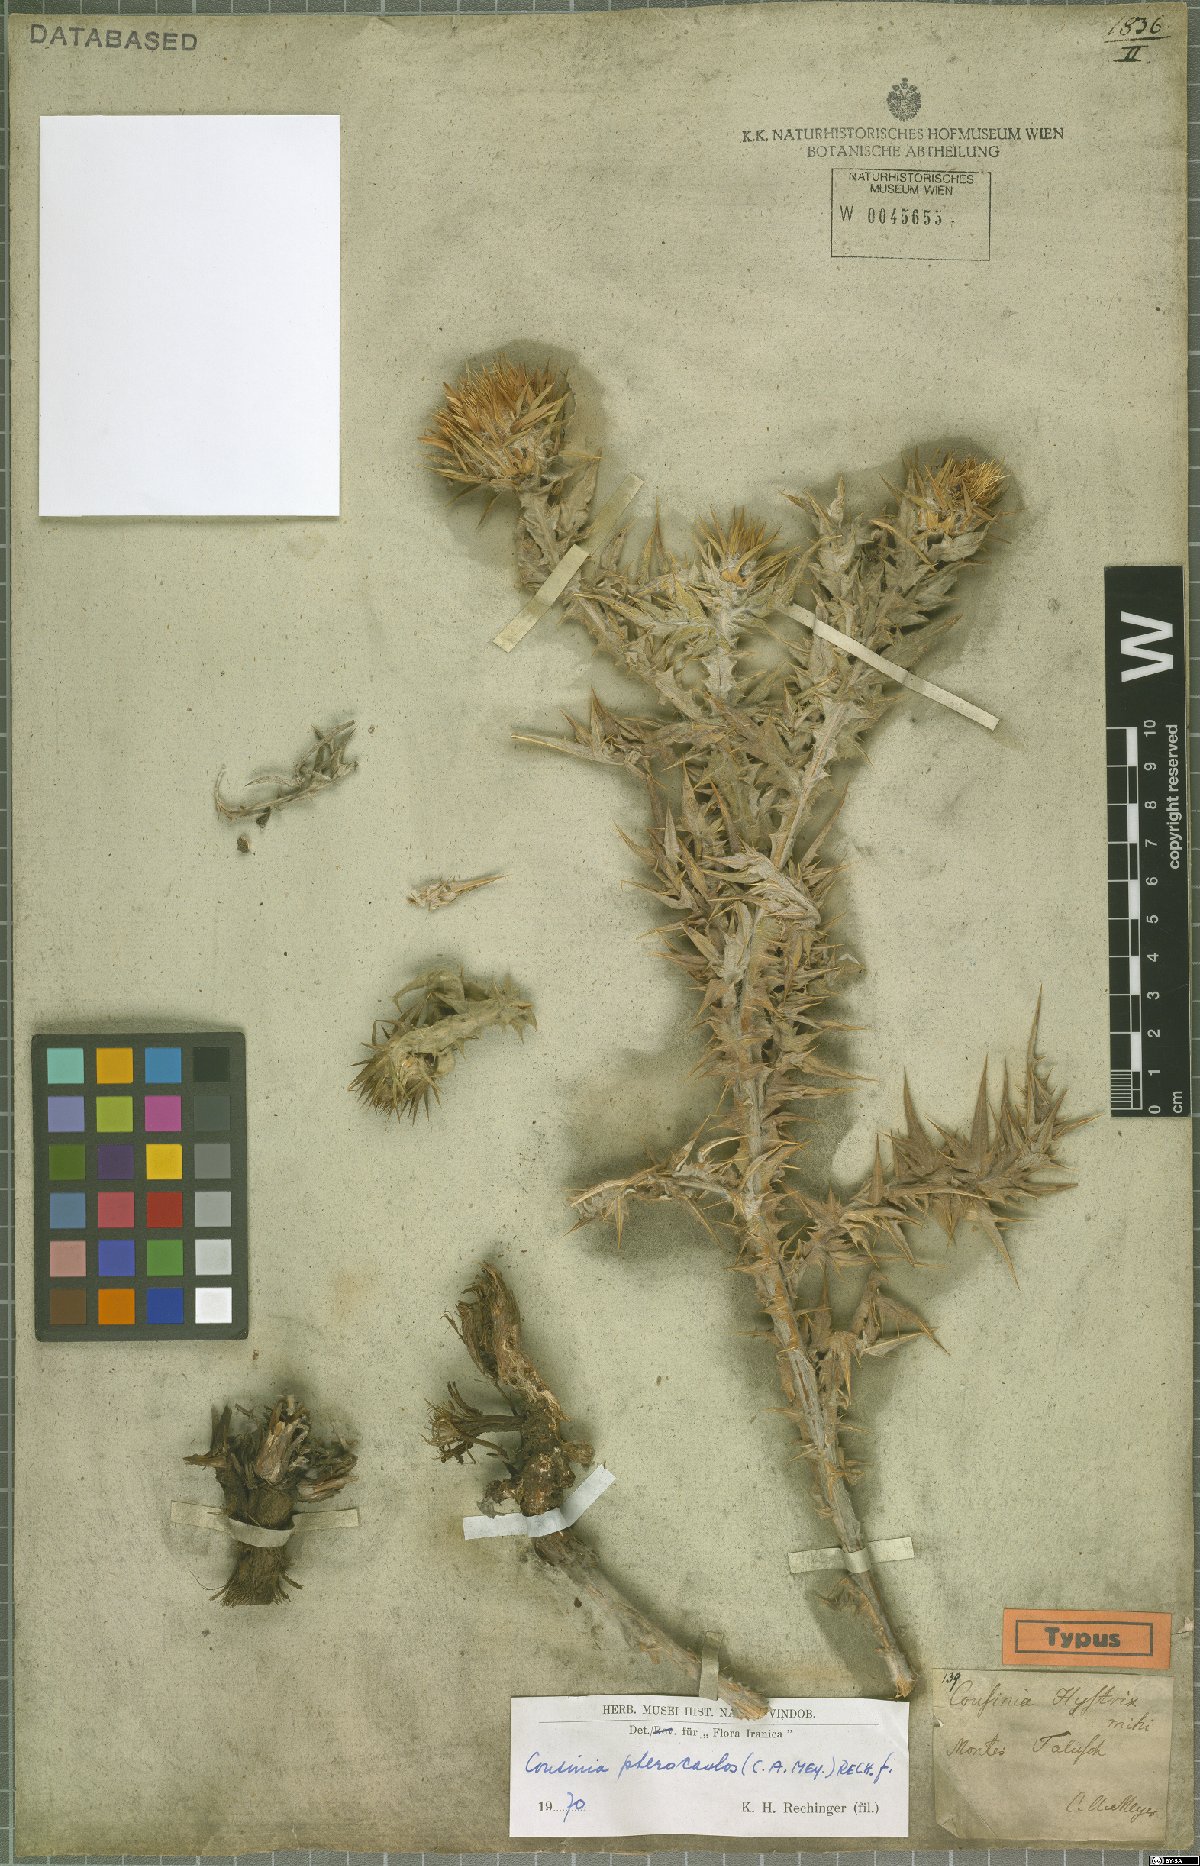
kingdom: Plantae
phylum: Tracheophyta
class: Magnoliopsida
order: Asterales
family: Asteraceae
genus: Cousinia
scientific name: Cousinia pterocaulos
